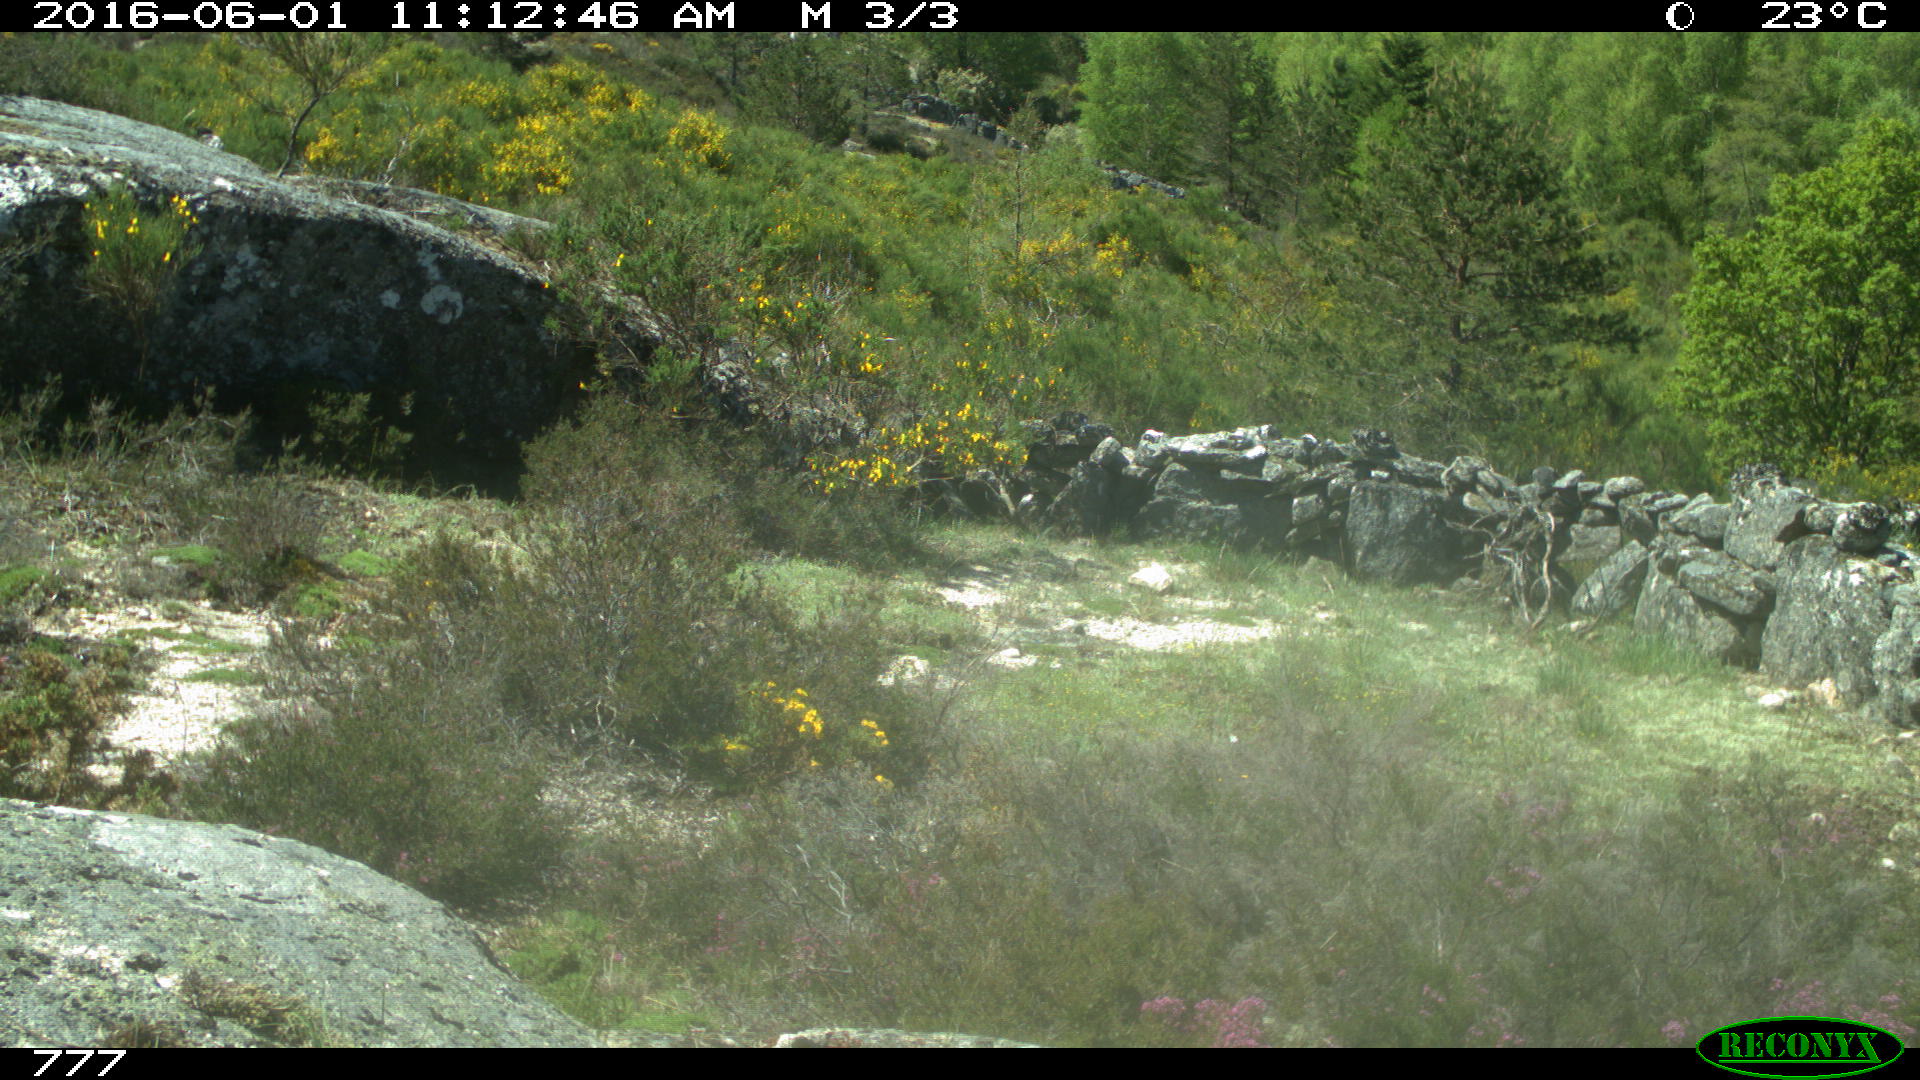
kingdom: Animalia
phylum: Chordata
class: Mammalia
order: Carnivora
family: Canidae
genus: Vulpes
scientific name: Vulpes vulpes
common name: Red fox
